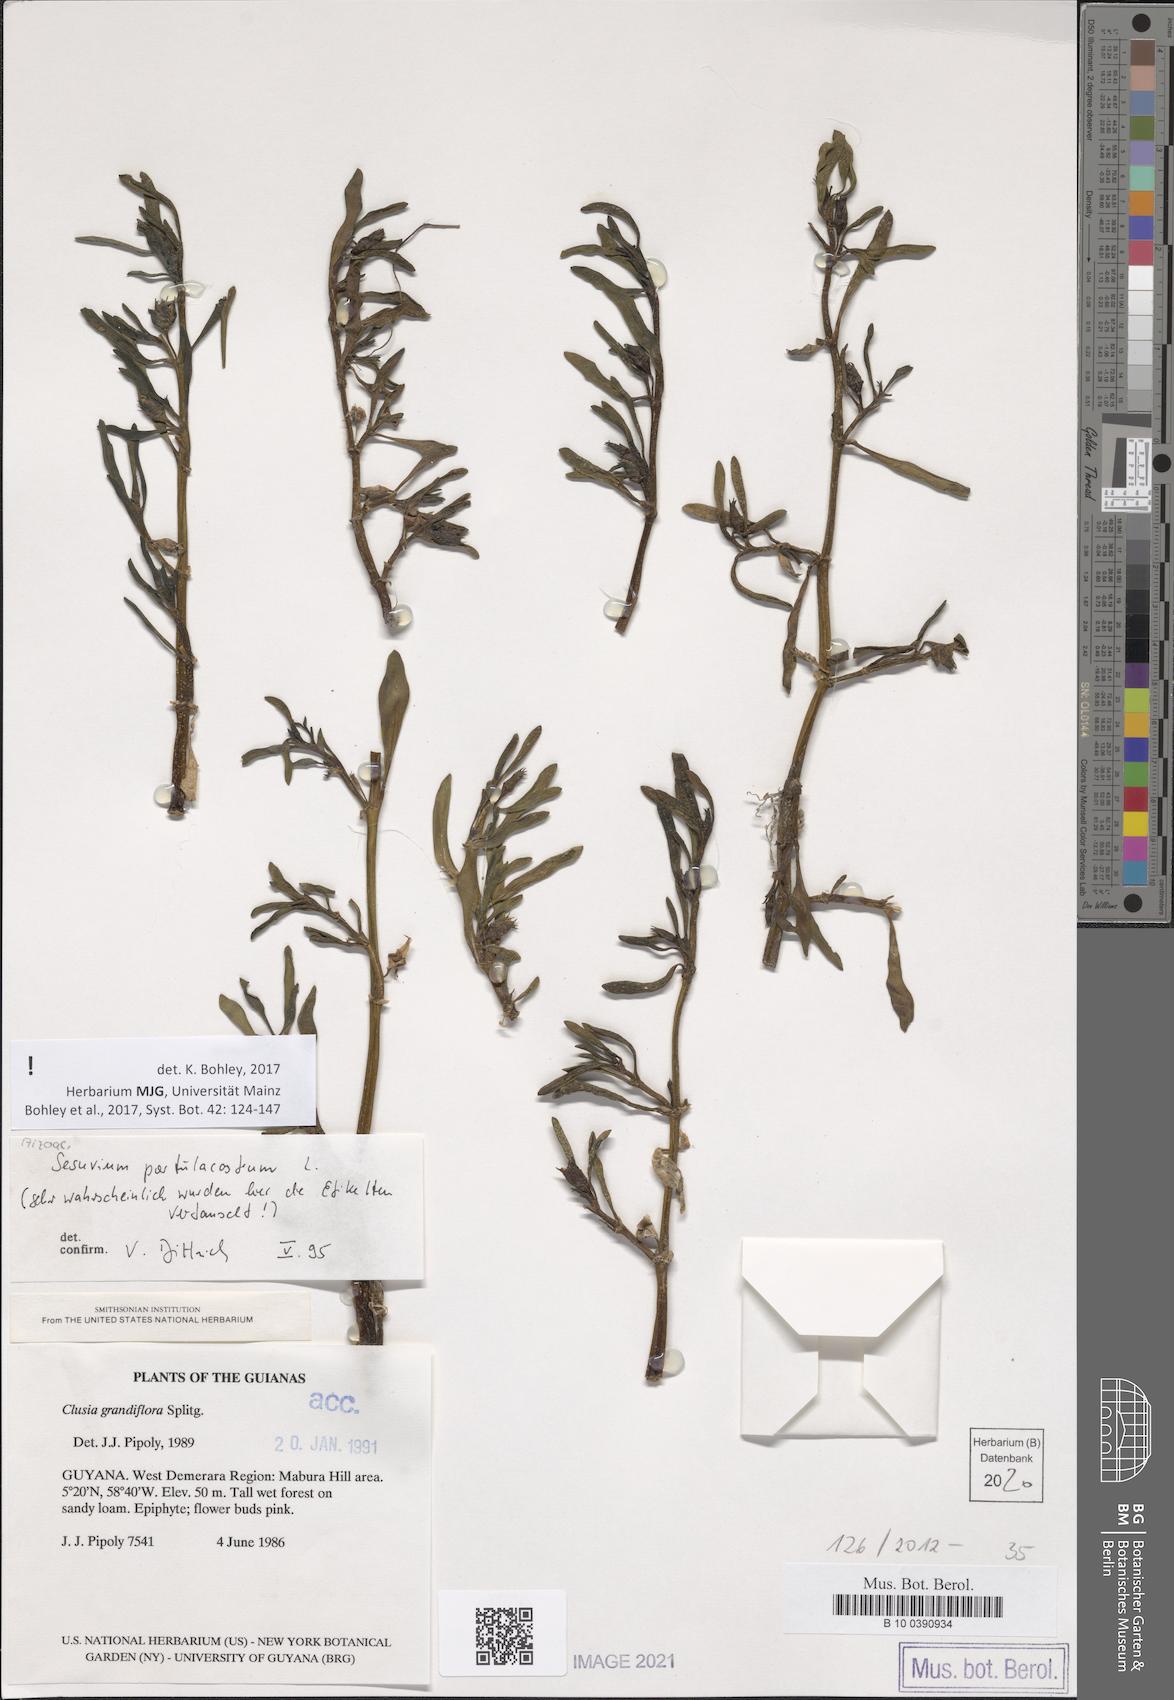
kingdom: Plantae
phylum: Tracheophyta
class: Magnoliopsida
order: Caryophyllales
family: Aizoaceae
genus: Sesuvium
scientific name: Sesuvium portulacastrum
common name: Sea-purslane
